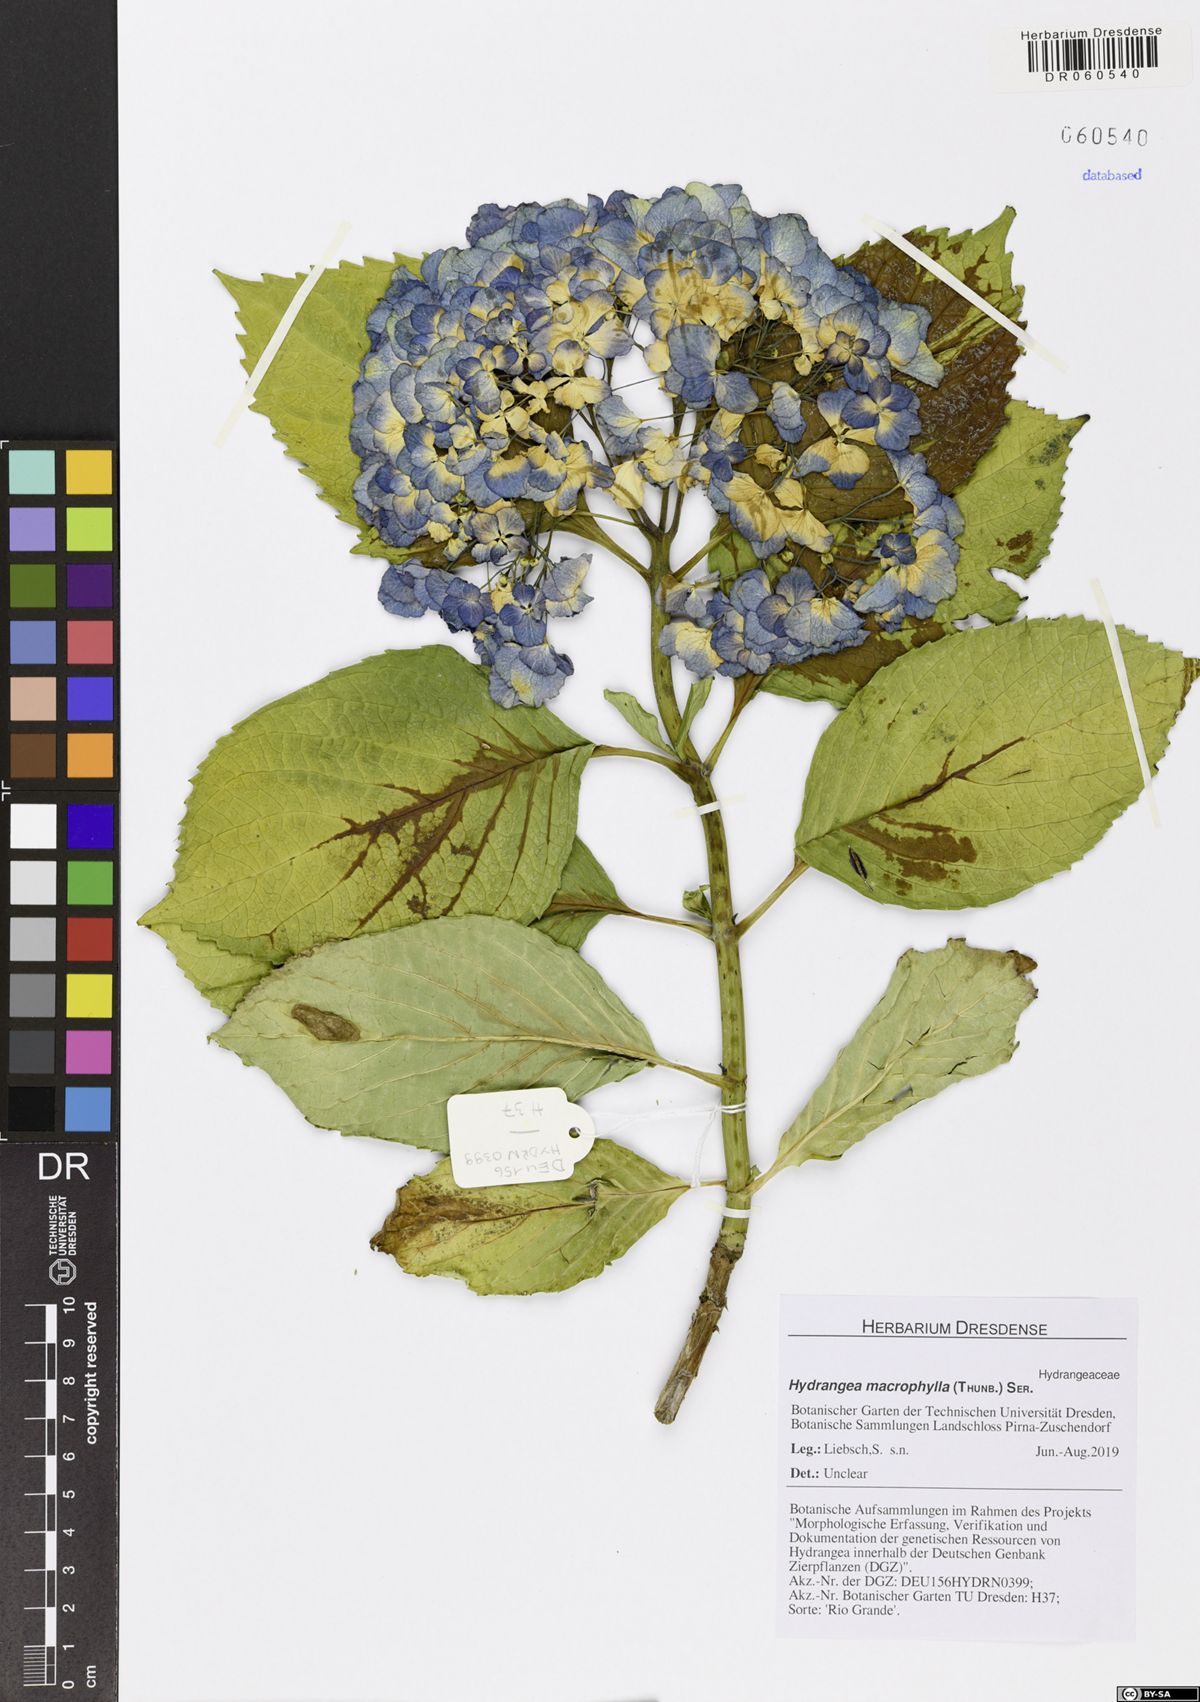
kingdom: Plantae
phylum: Tracheophyta
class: Magnoliopsida
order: Cornales
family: Hydrangeaceae
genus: Hydrangea
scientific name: Hydrangea macrophylla
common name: Hydrangea
